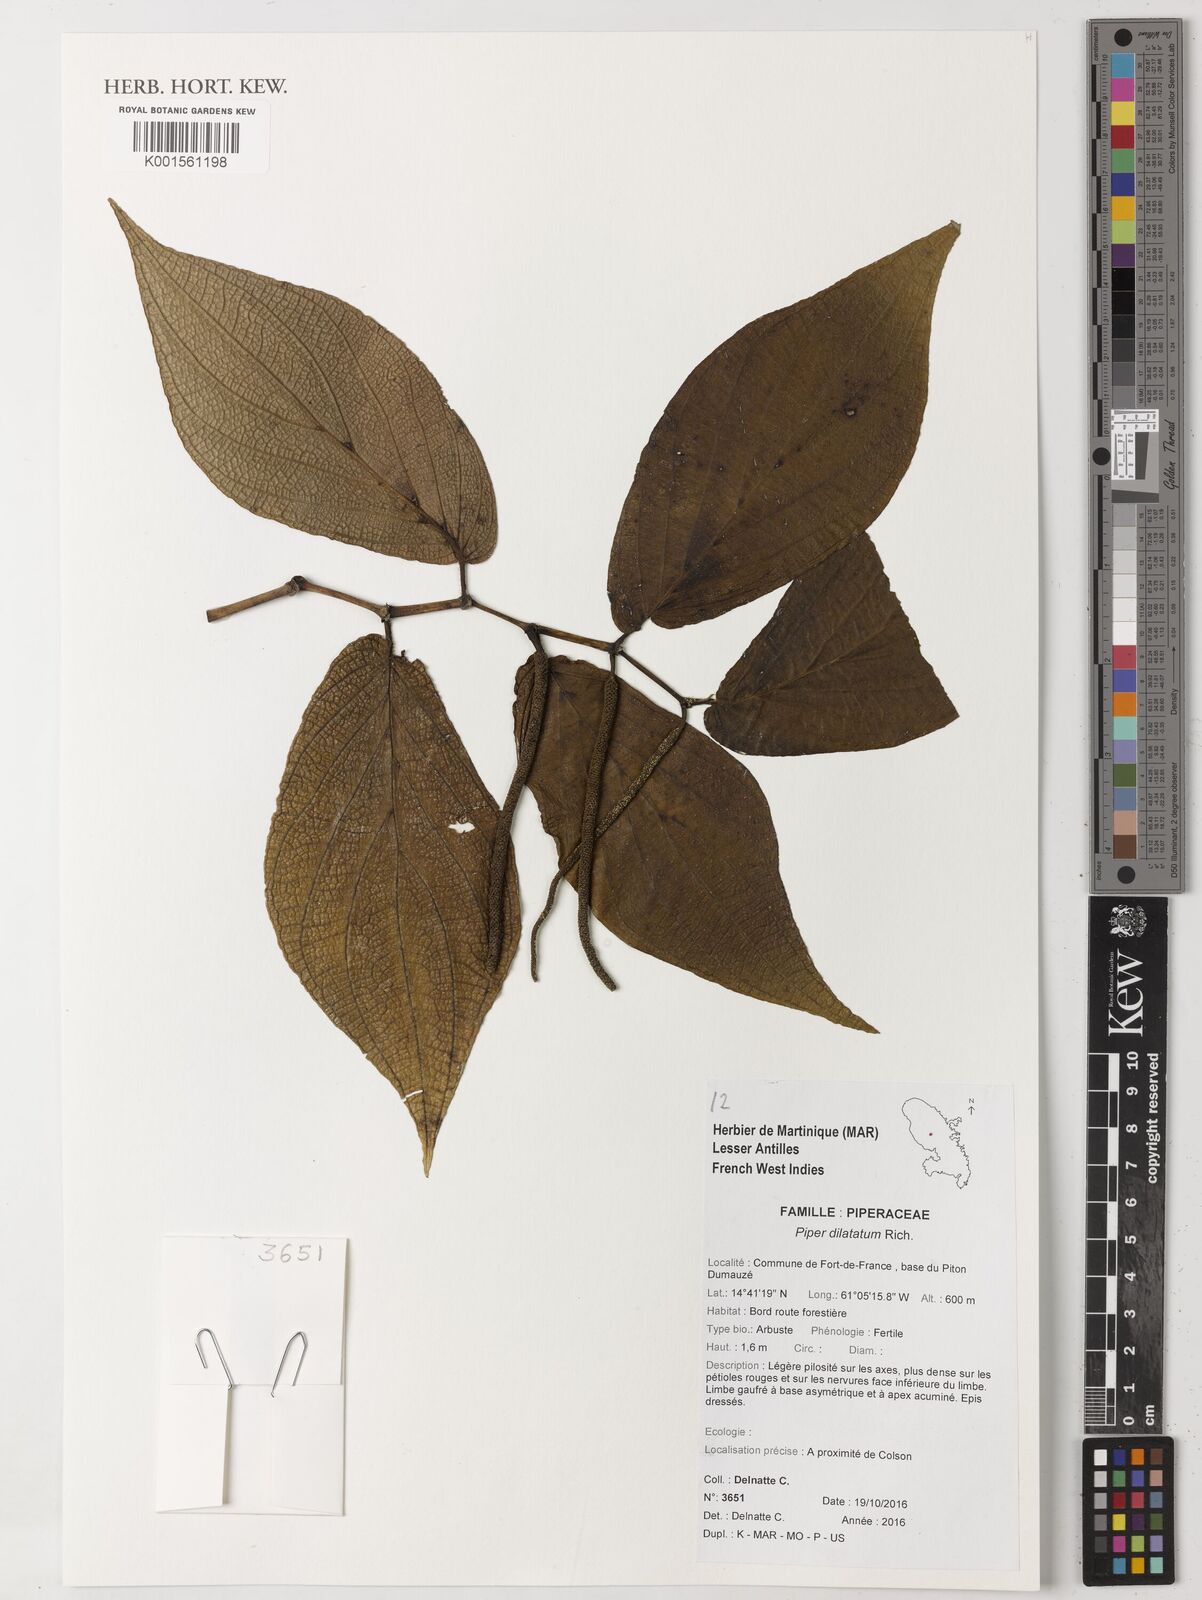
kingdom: Plantae
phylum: Tracheophyta
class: Magnoliopsida
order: Piperales
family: Piperaceae
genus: Piper
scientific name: Piper dilatatum
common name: Higuillo
